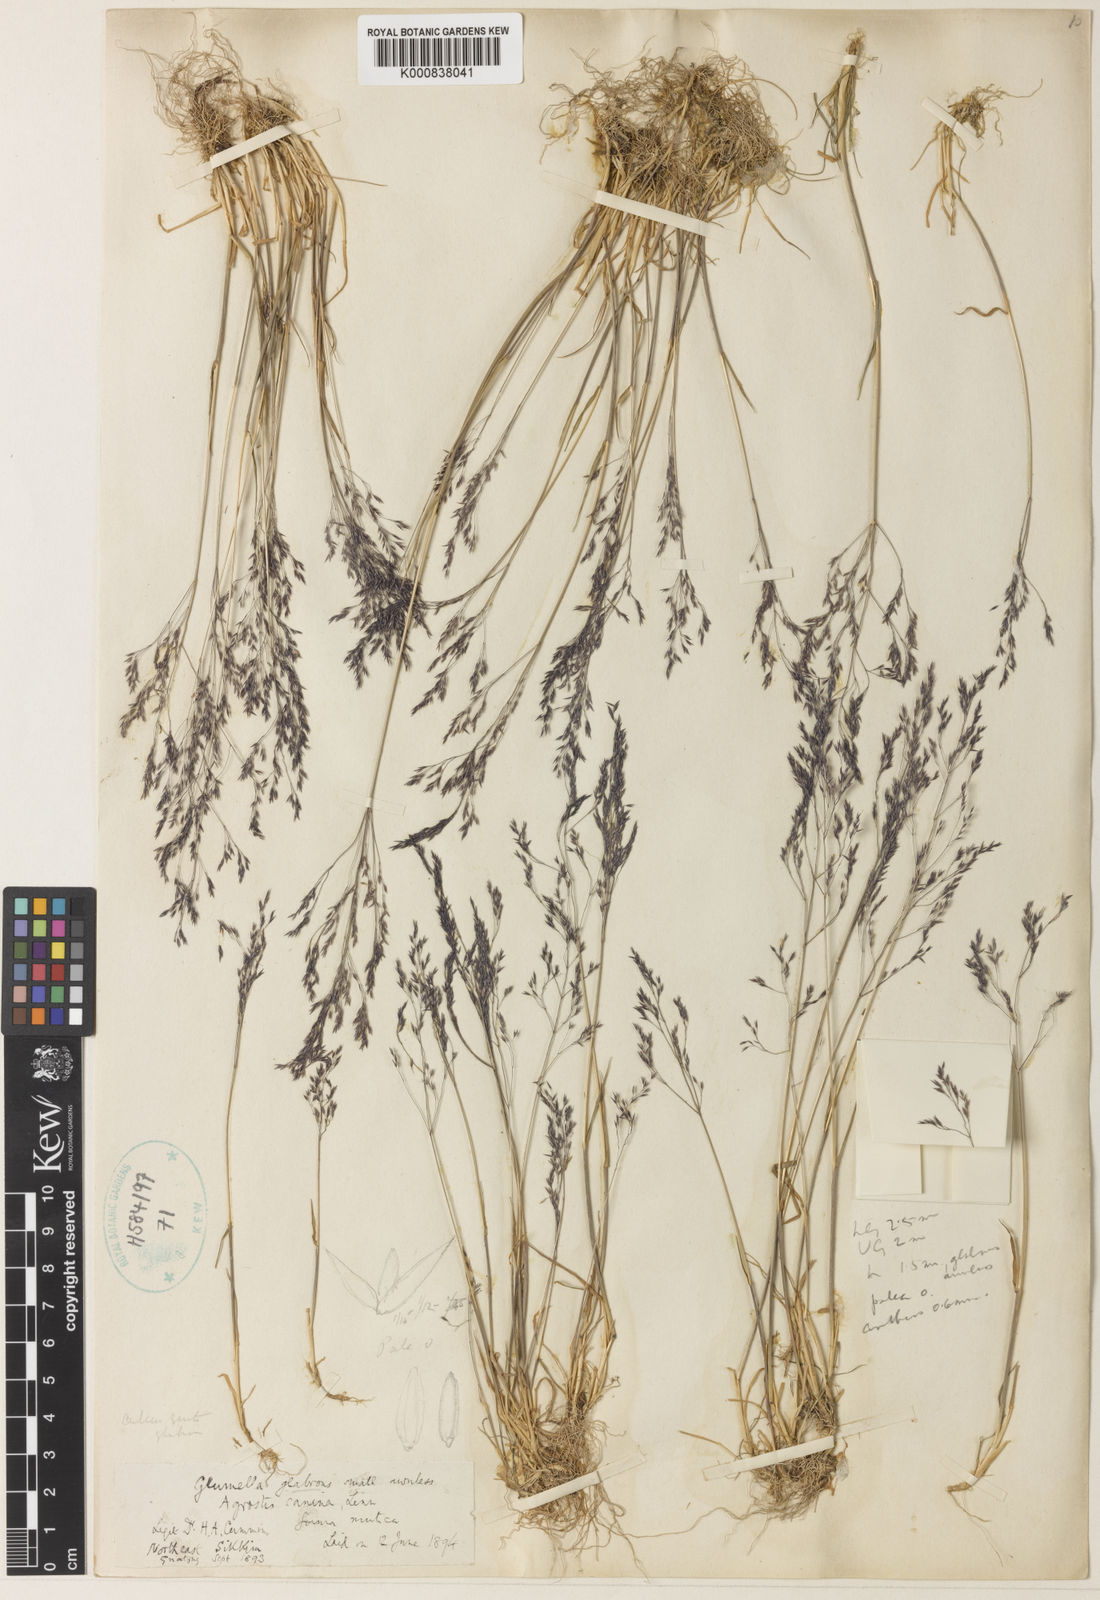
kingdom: Plantae
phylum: Tracheophyta
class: Liliopsida
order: Poales
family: Poaceae
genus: Agrostis
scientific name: Agrostis nervosa
